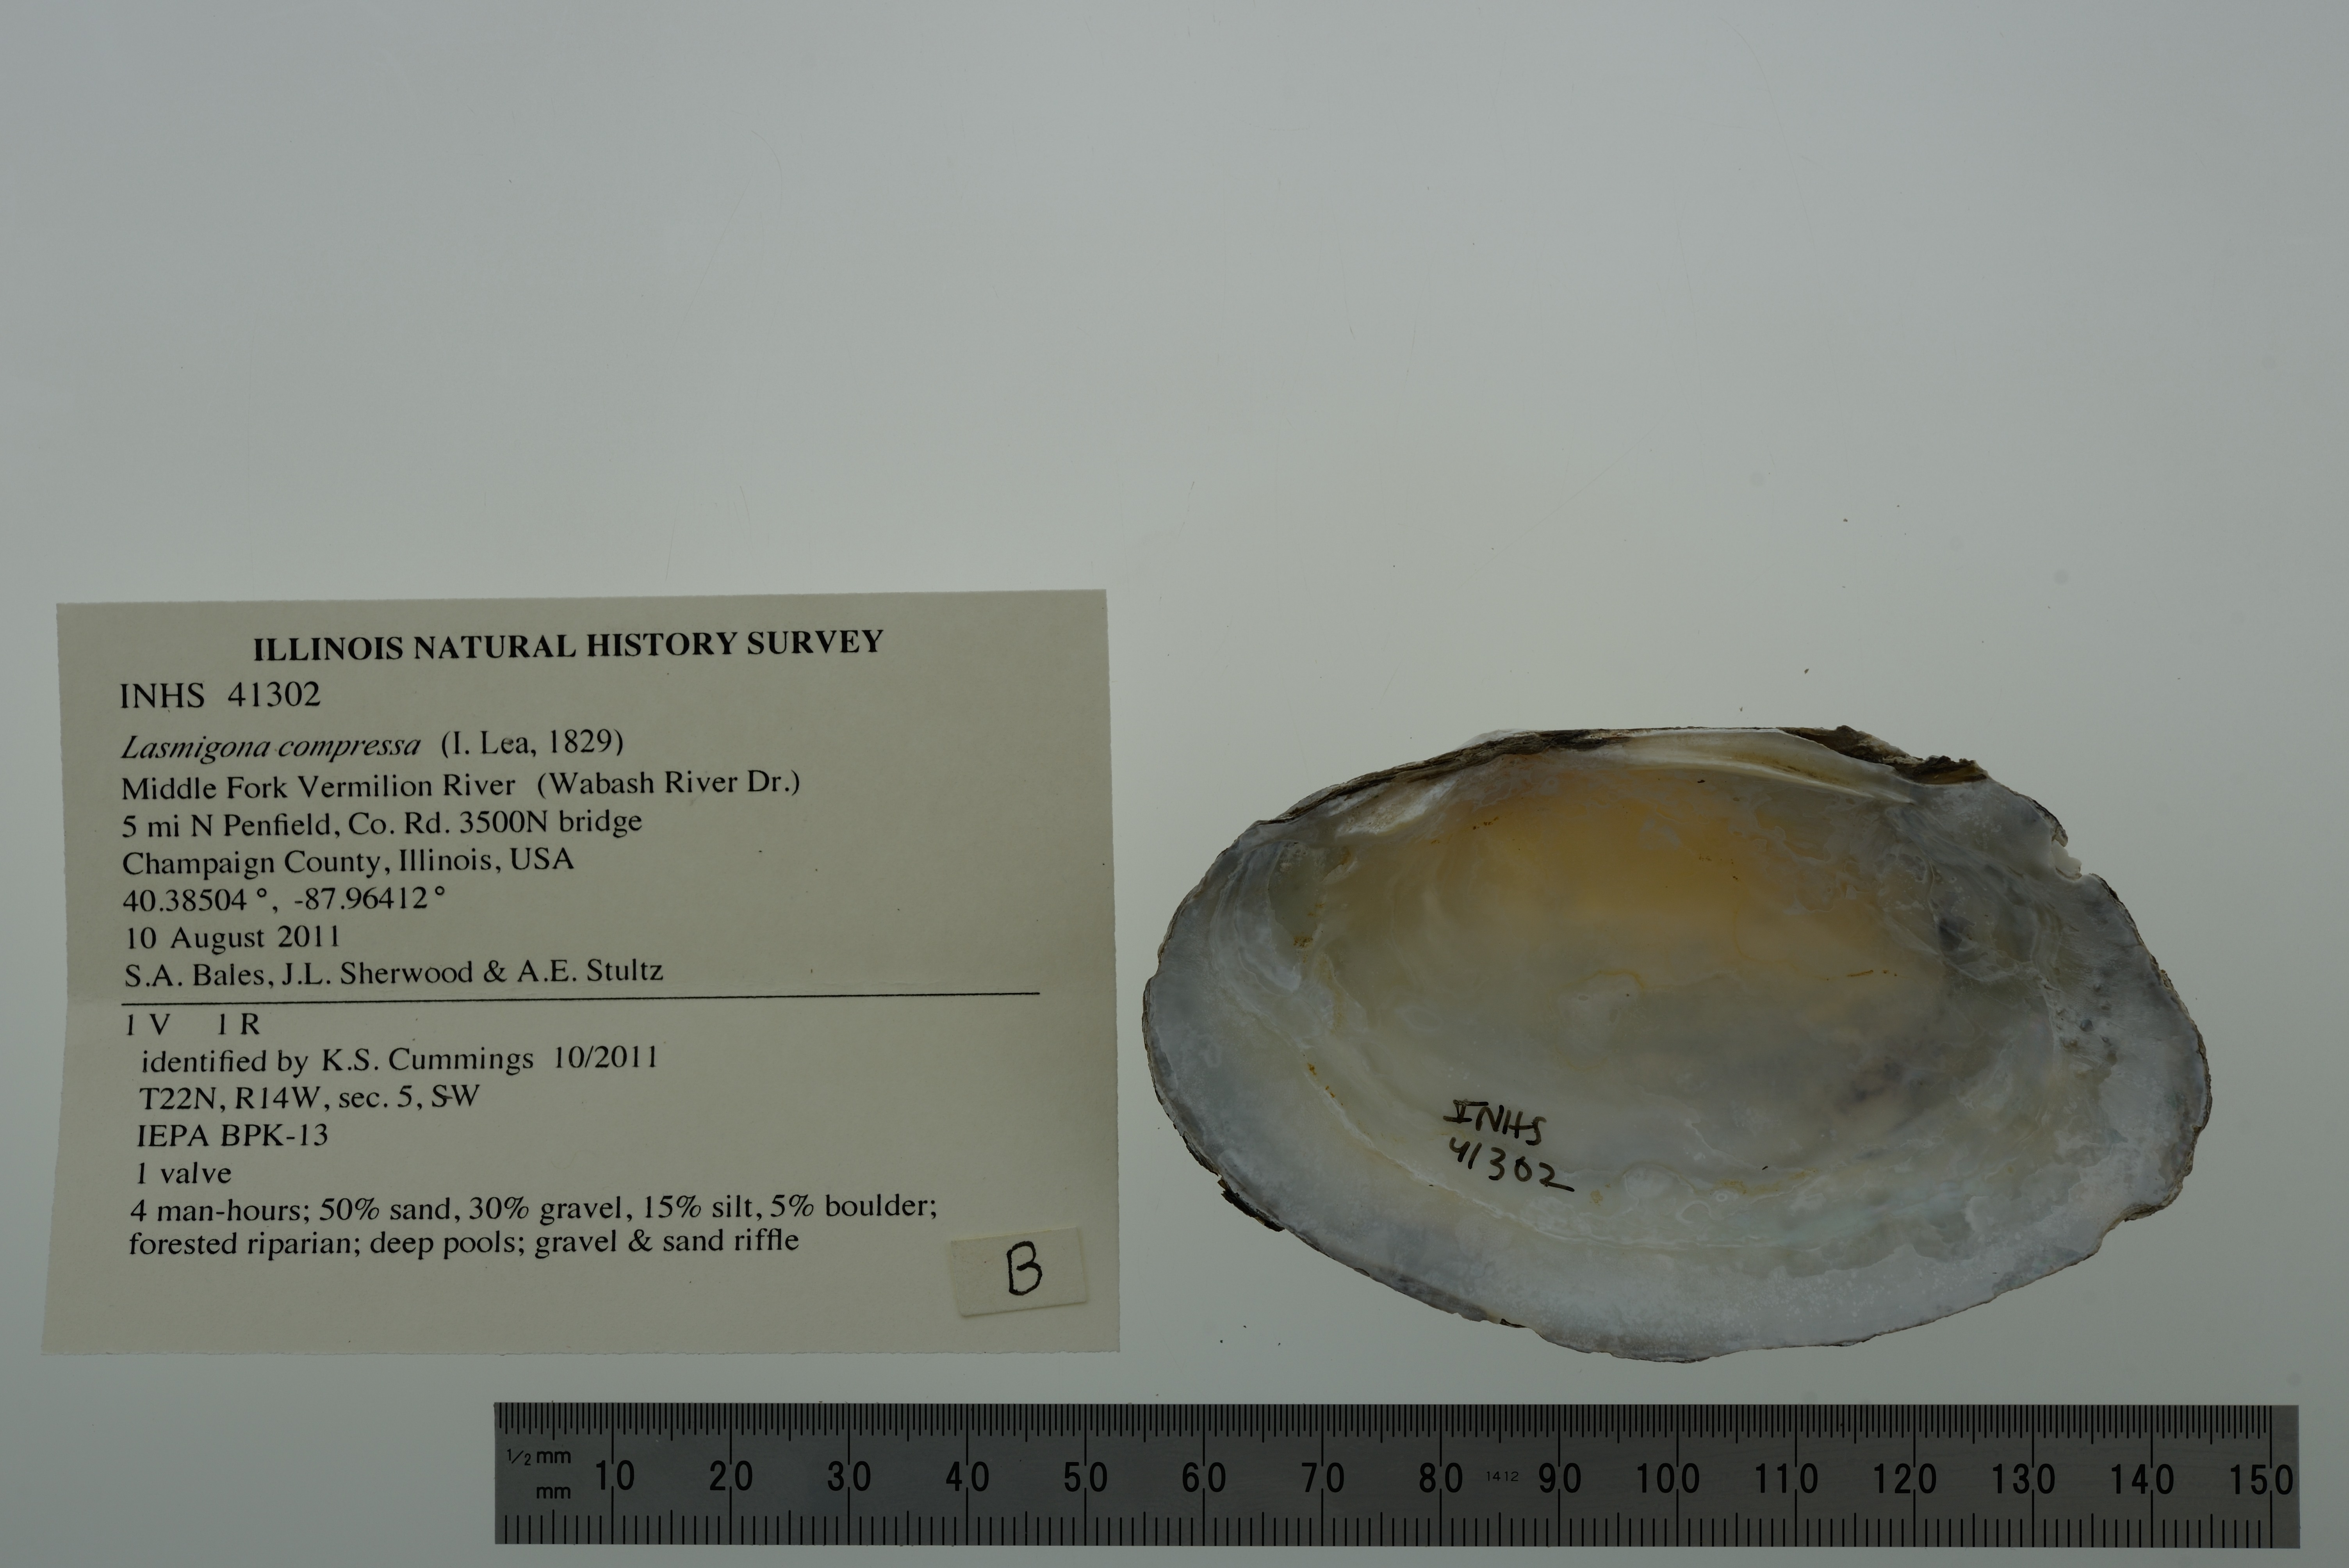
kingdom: Animalia
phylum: Mollusca
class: Bivalvia
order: Unionida
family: Unionidae
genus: Lasmigona
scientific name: Lasmigona compressa
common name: Creek heelsplitter
